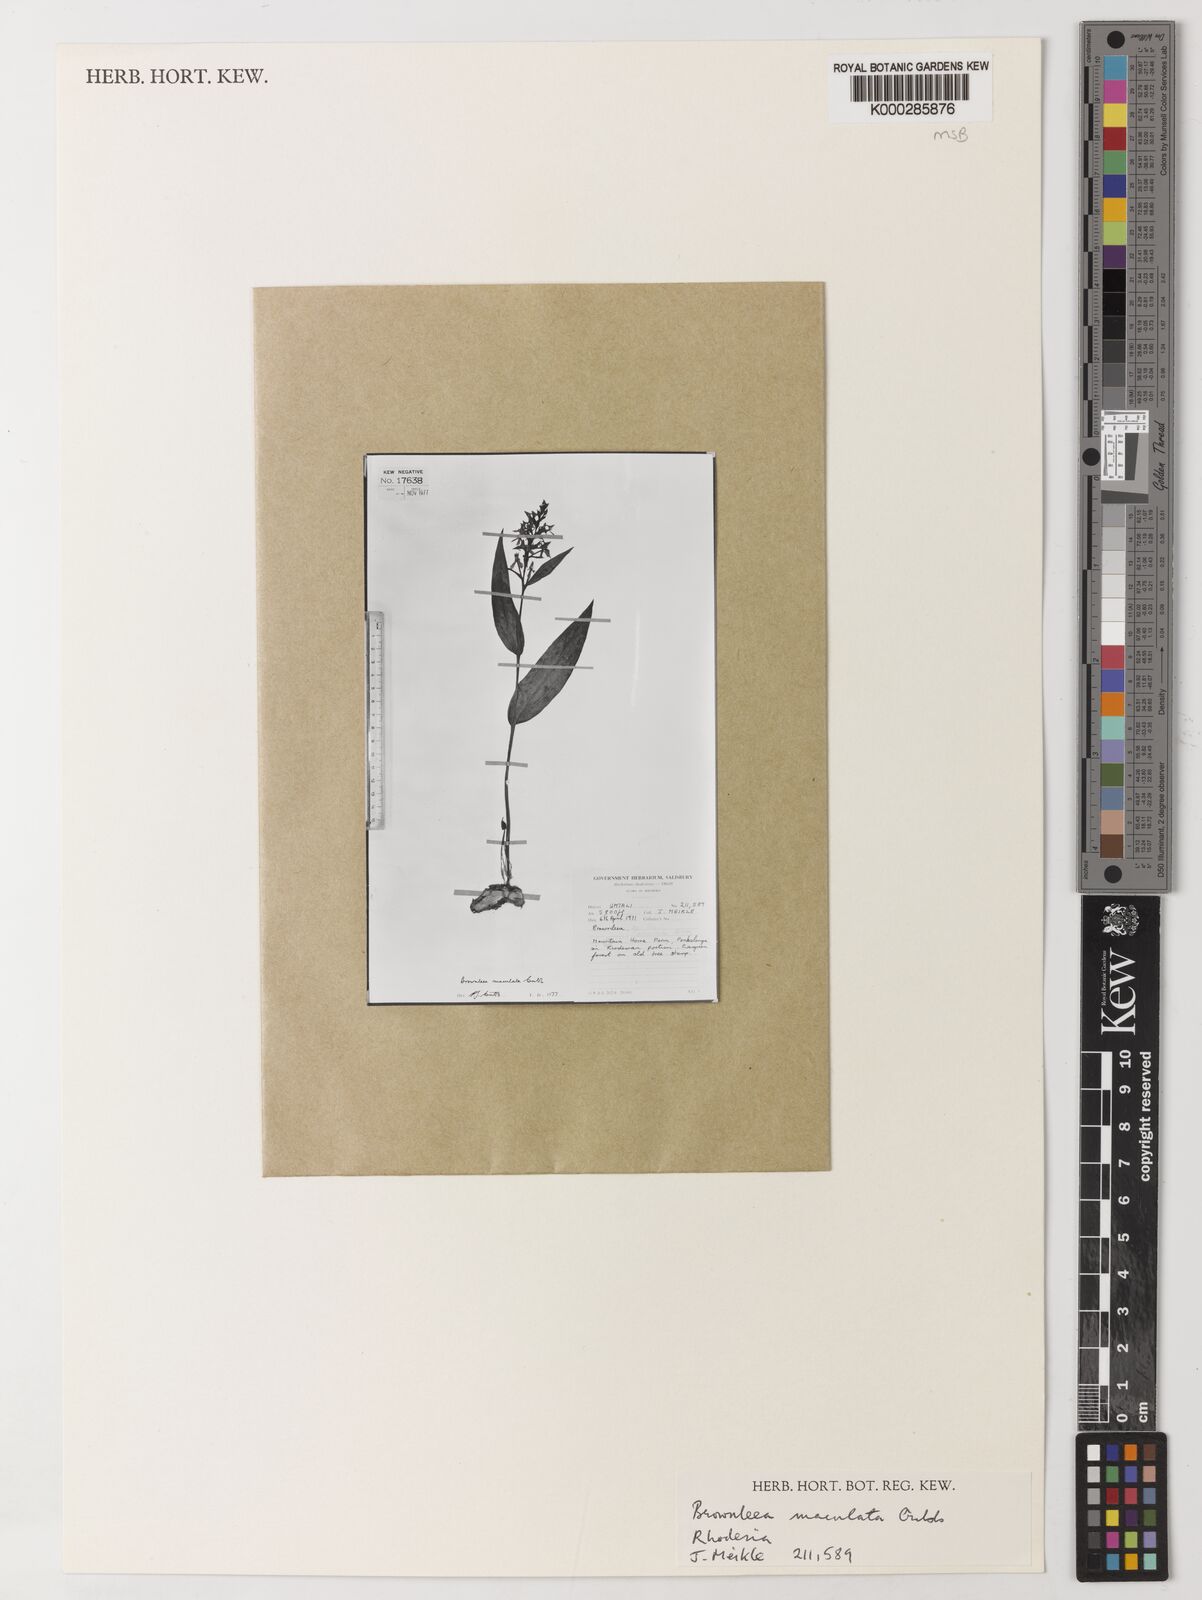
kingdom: Plantae
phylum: Tracheophyta
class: Liliopsida
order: Asparagales
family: Orchidaceae
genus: Brownleea
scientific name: Brownleea maculata
